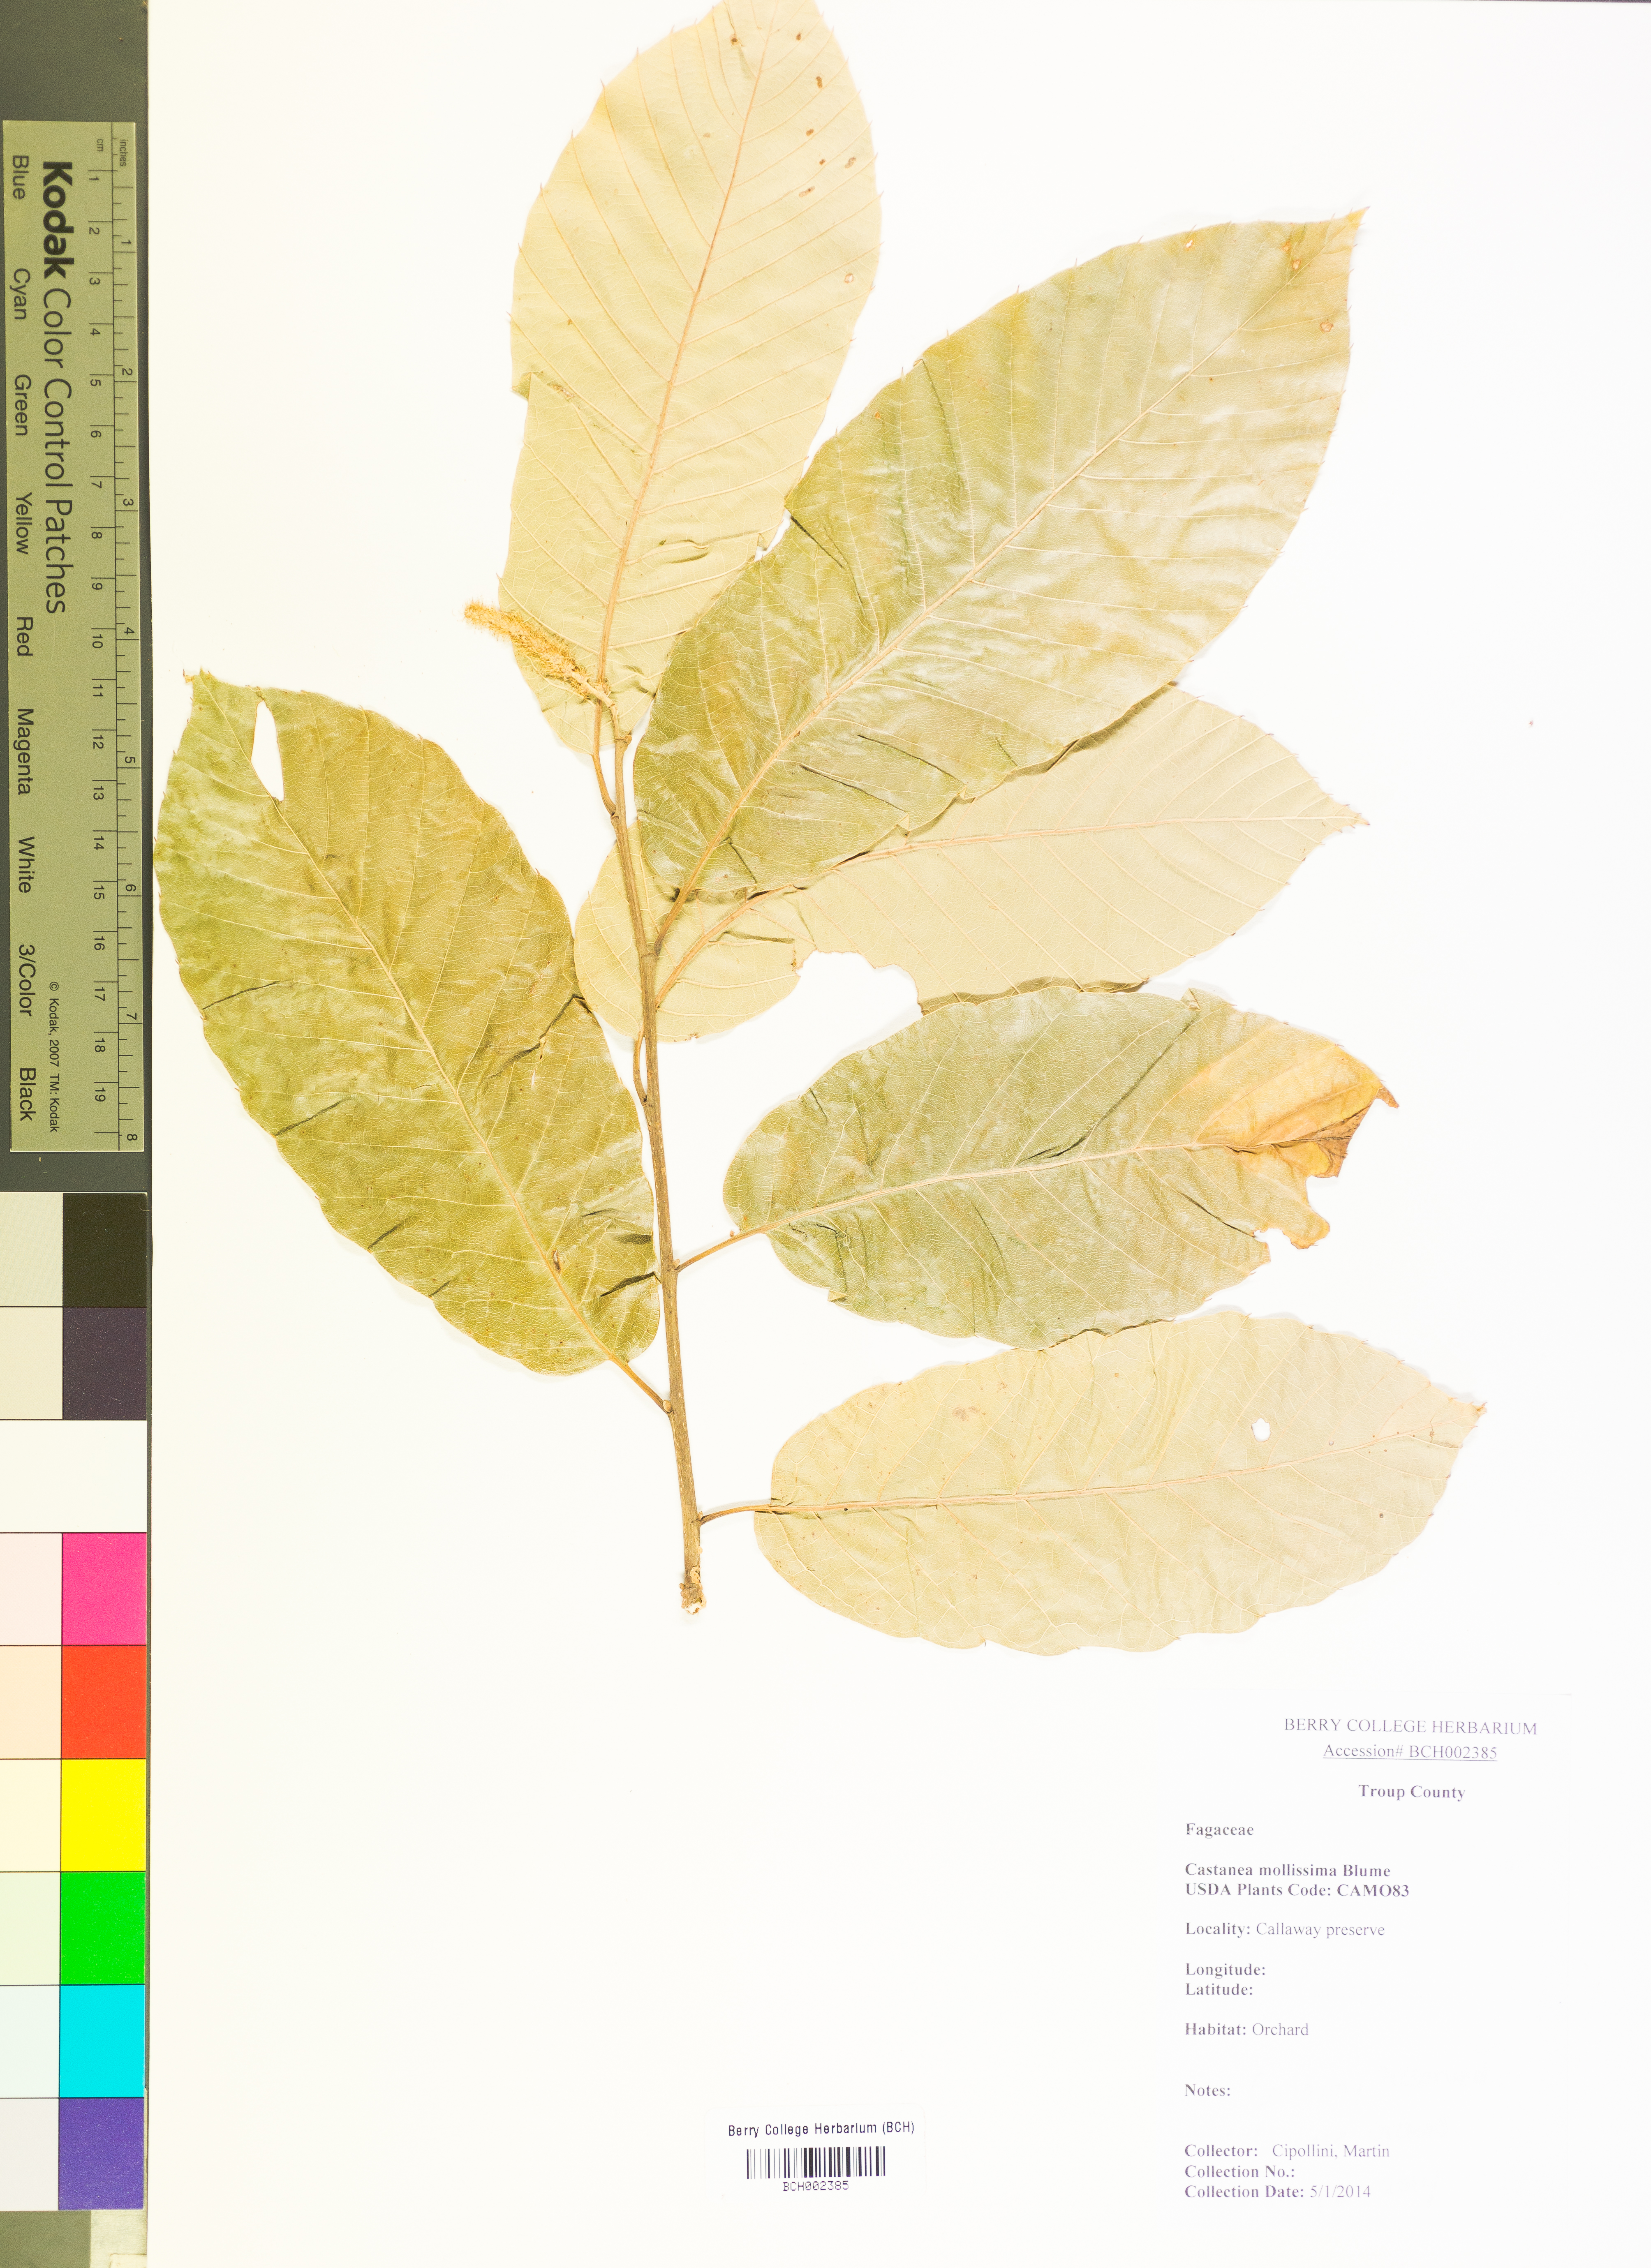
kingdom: Plantae
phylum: Tracheophyta
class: Magnoliopsida
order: Fagales
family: Fagaceae
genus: Castanea
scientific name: Castanea mollissima
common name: Chinese chestnut
